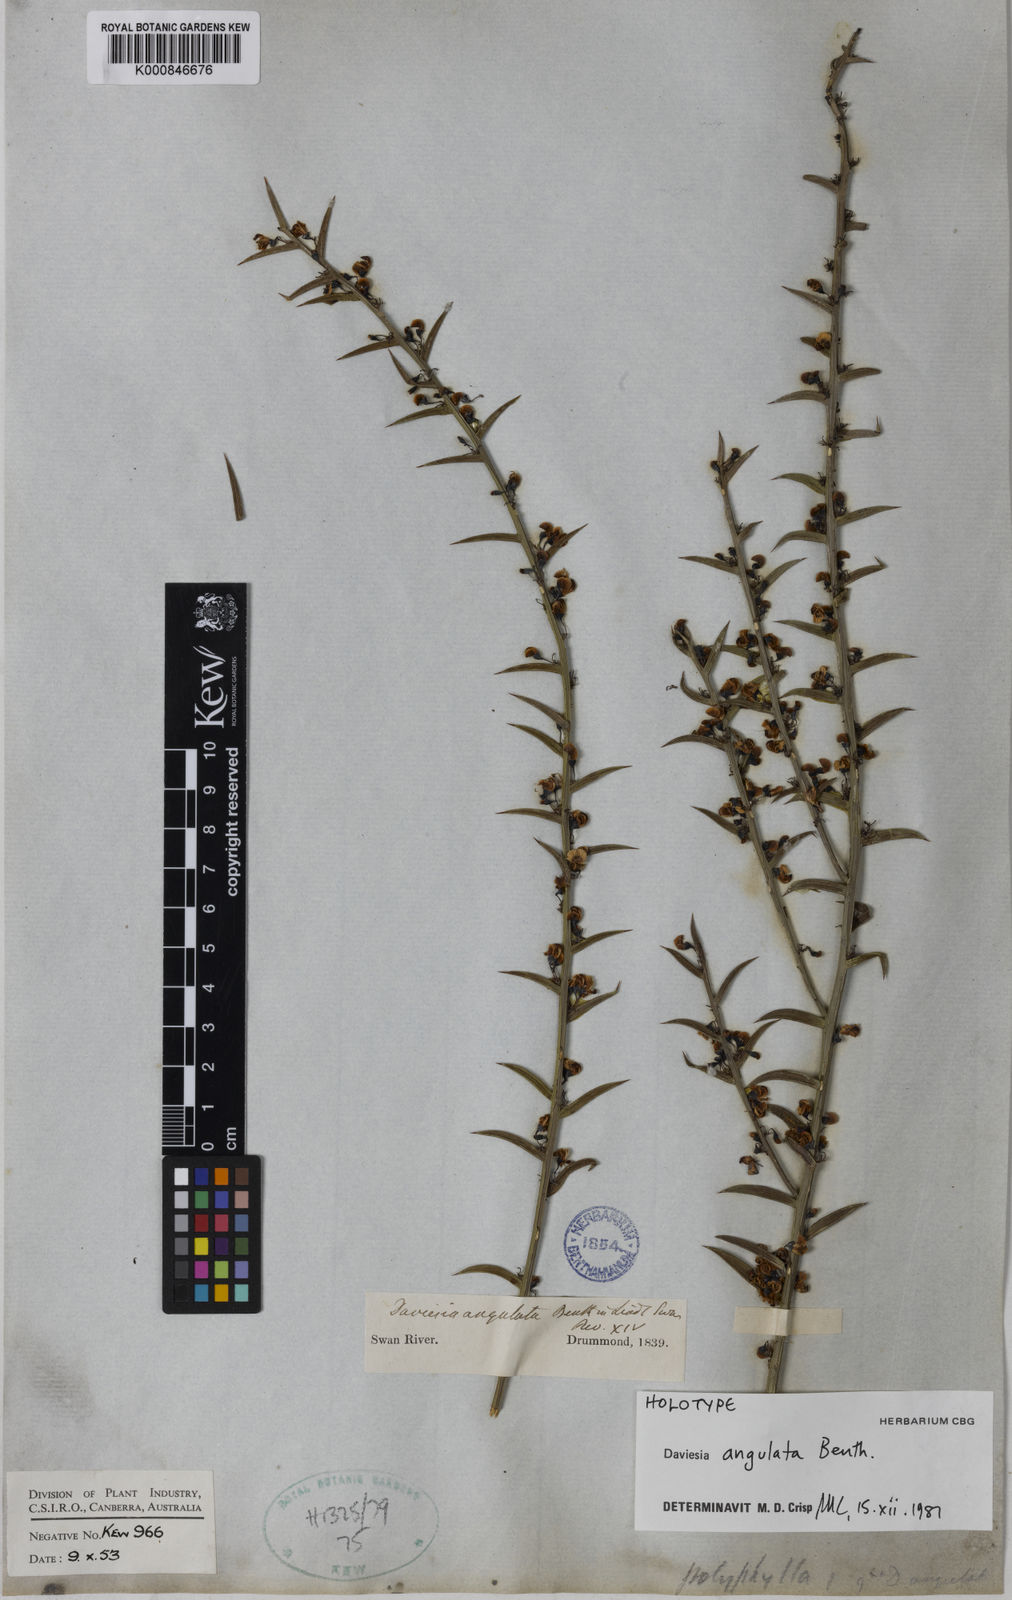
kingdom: Plantae
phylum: Tracheophyta
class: Magnoliopsida
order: Fabales
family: Fabaceae
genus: Daviesia
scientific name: Daviesia angulata
